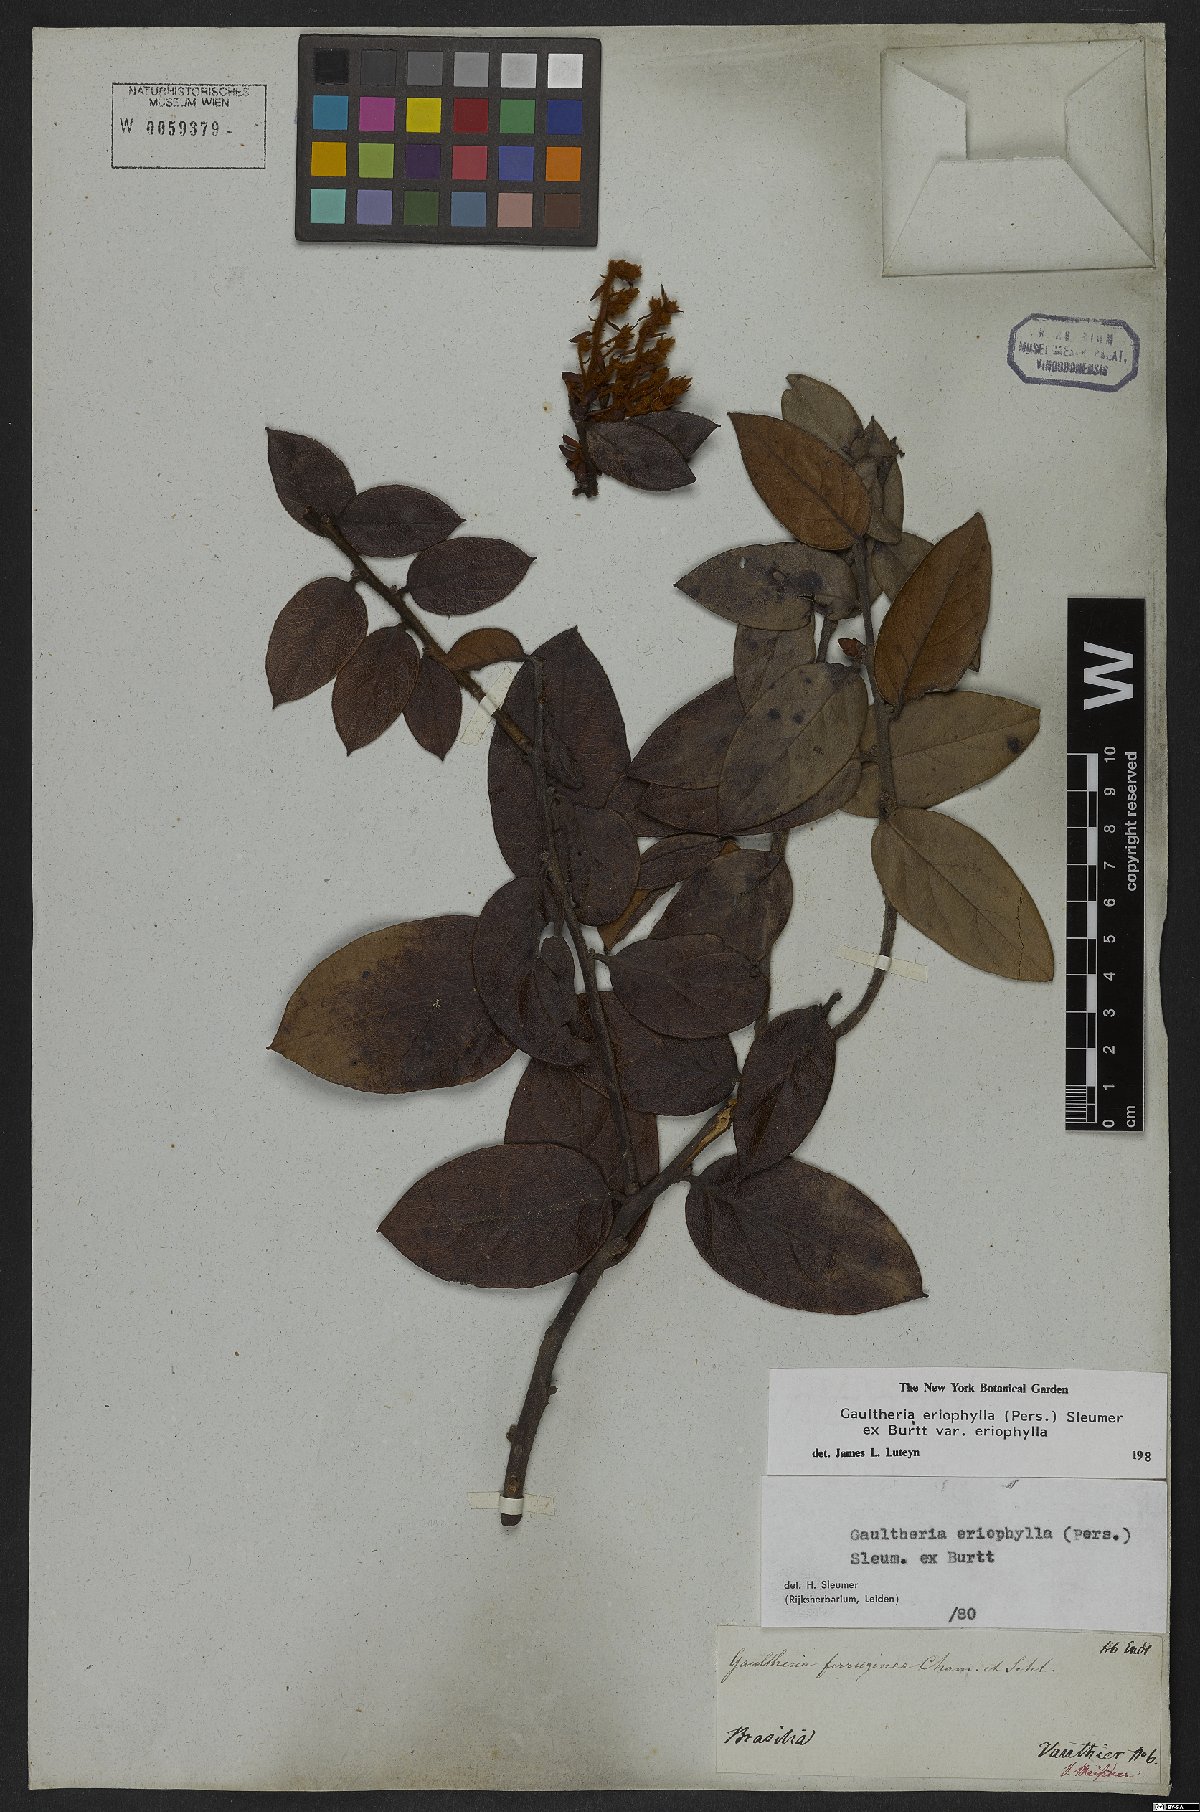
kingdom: Plantae
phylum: Tracheophyta
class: Magnoliopsida
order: Ericales
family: Ericaceae
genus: Gaultheria
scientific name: Gaultheria eriophylla
